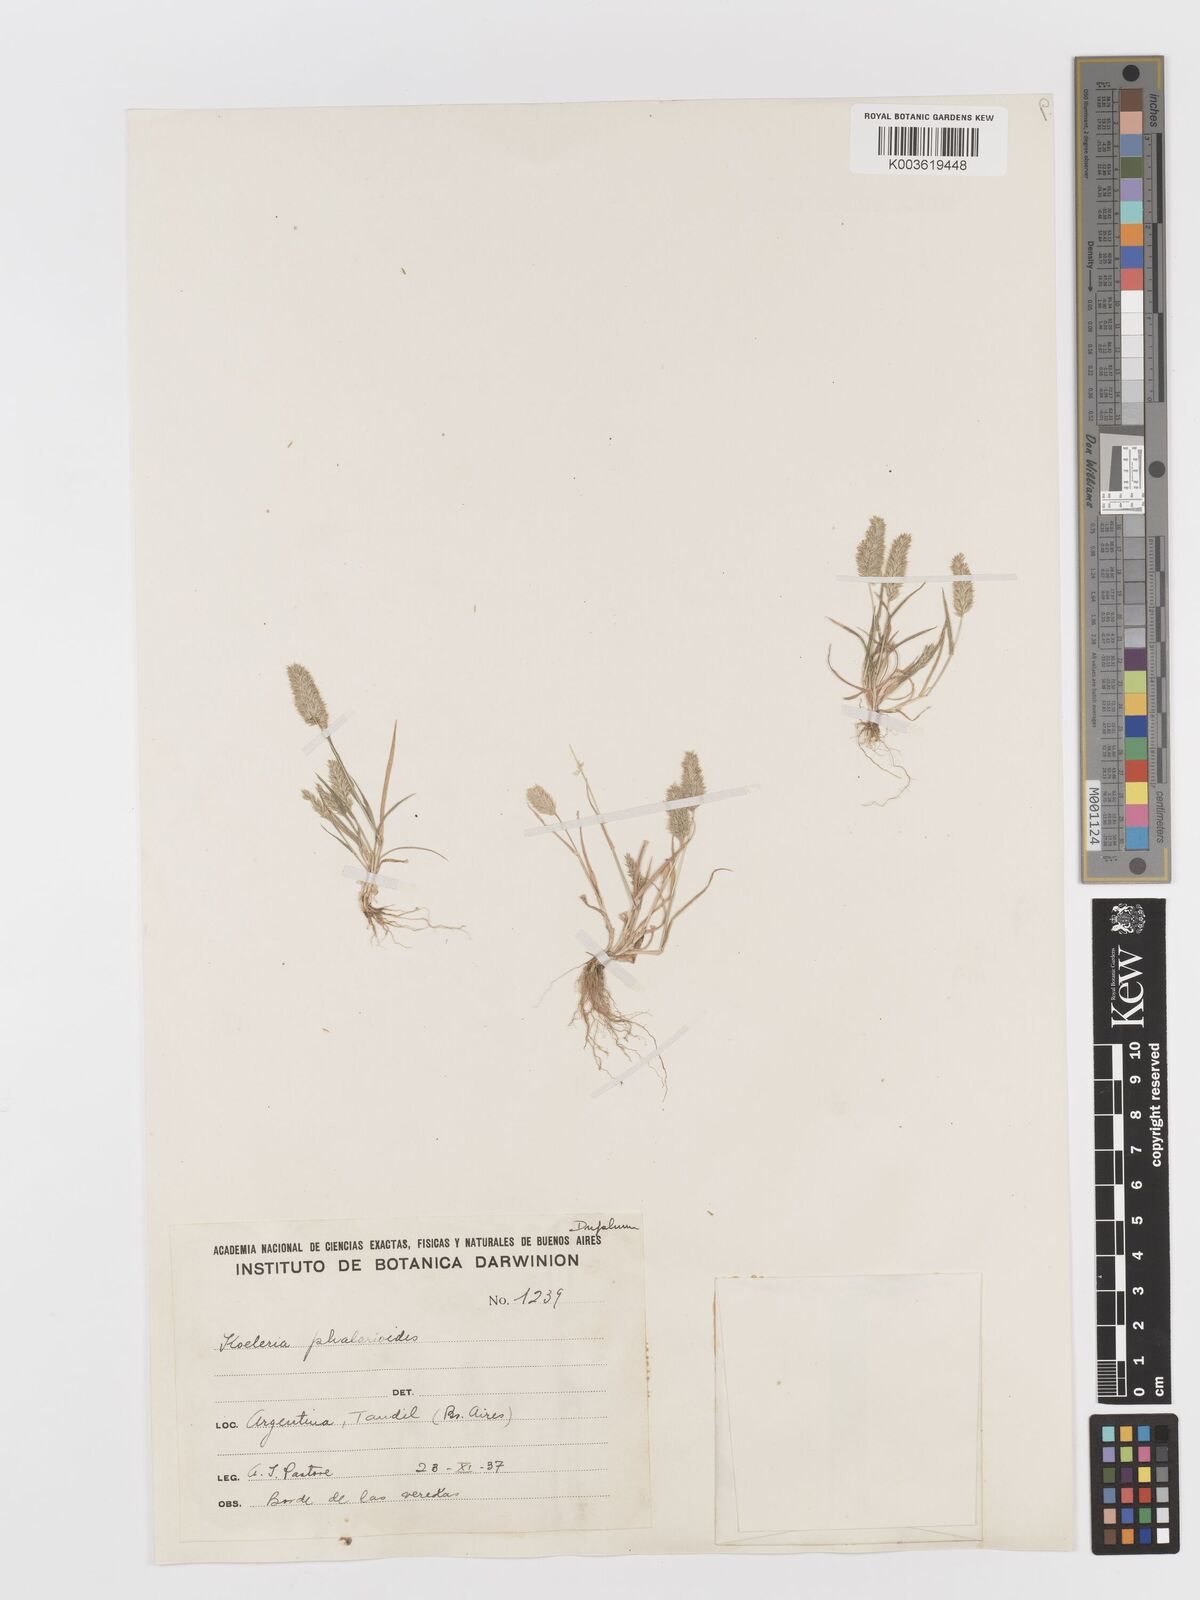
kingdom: Plantae
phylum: Tracheophyta
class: Liliopsida
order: Poales
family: Poaceae
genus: Rostraria
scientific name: Rostraria cristata
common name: Mediterranean hair-grass
